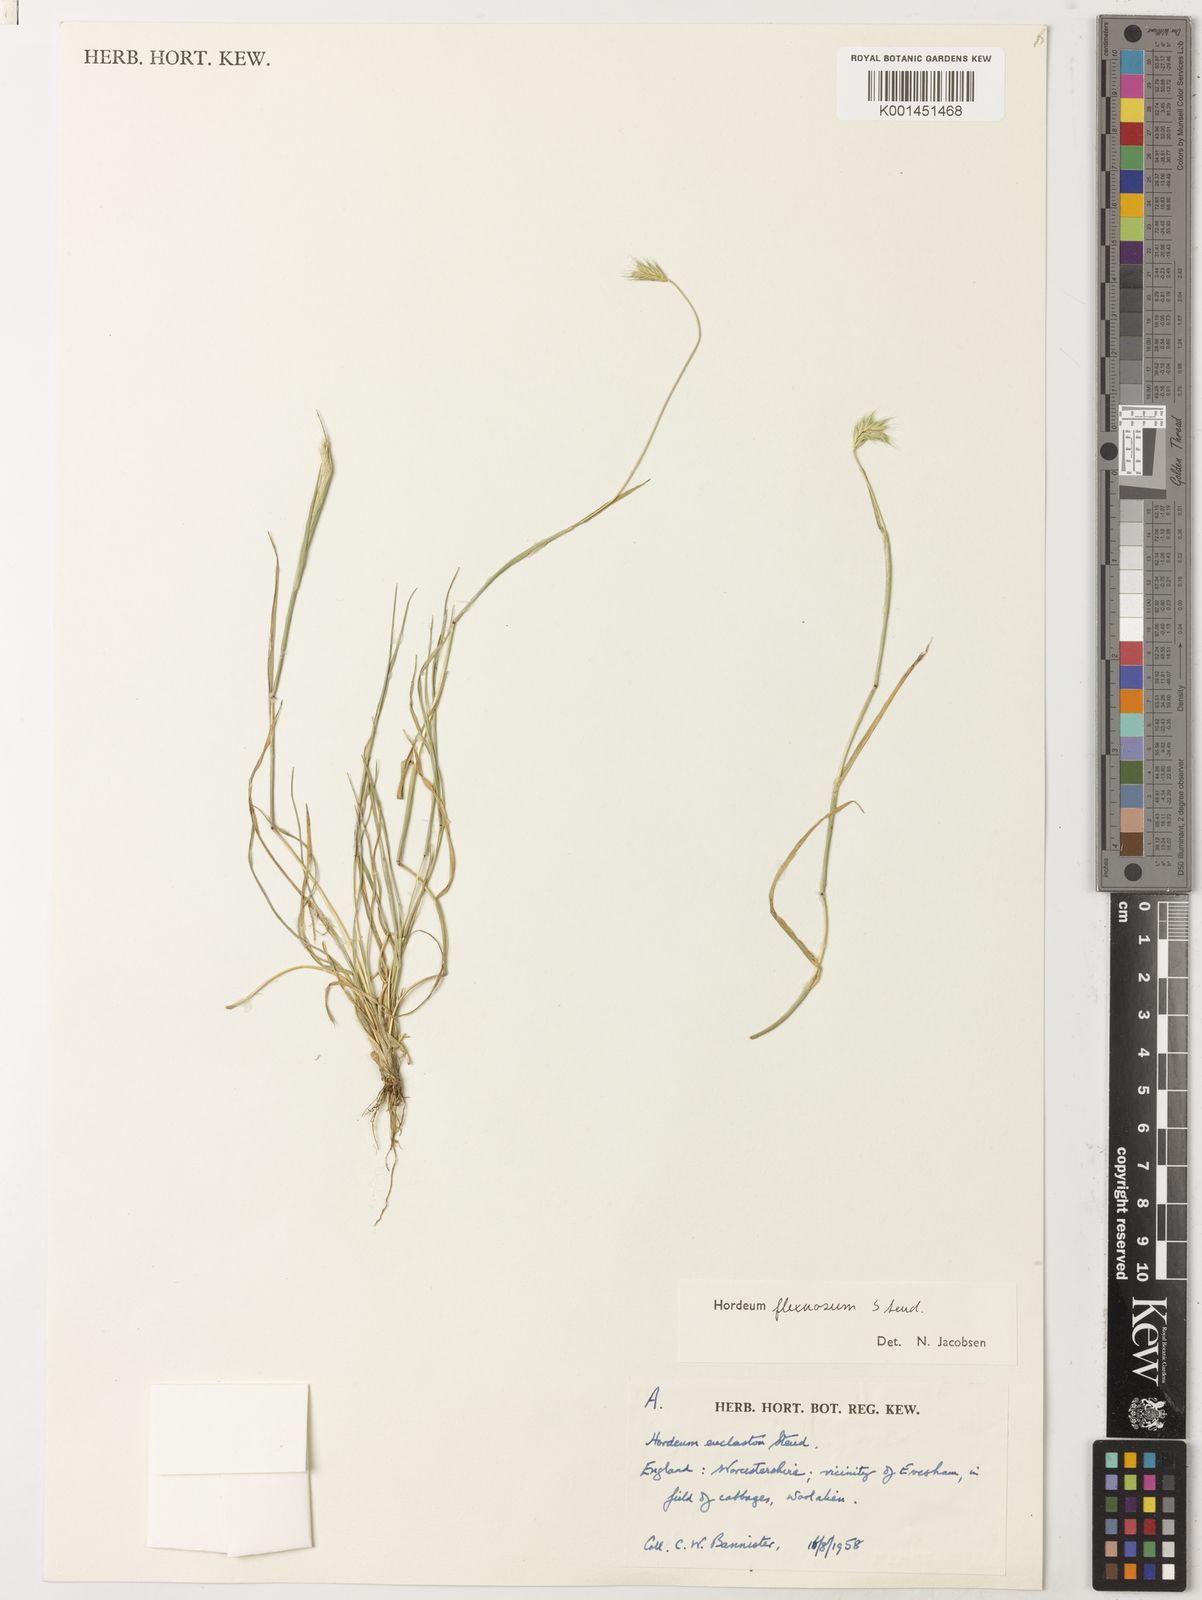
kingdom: Plantae
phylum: Tracheophyta
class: Liliopsida
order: Poales
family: Poaceae
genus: Hordeum
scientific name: Hordeum flexuosum
